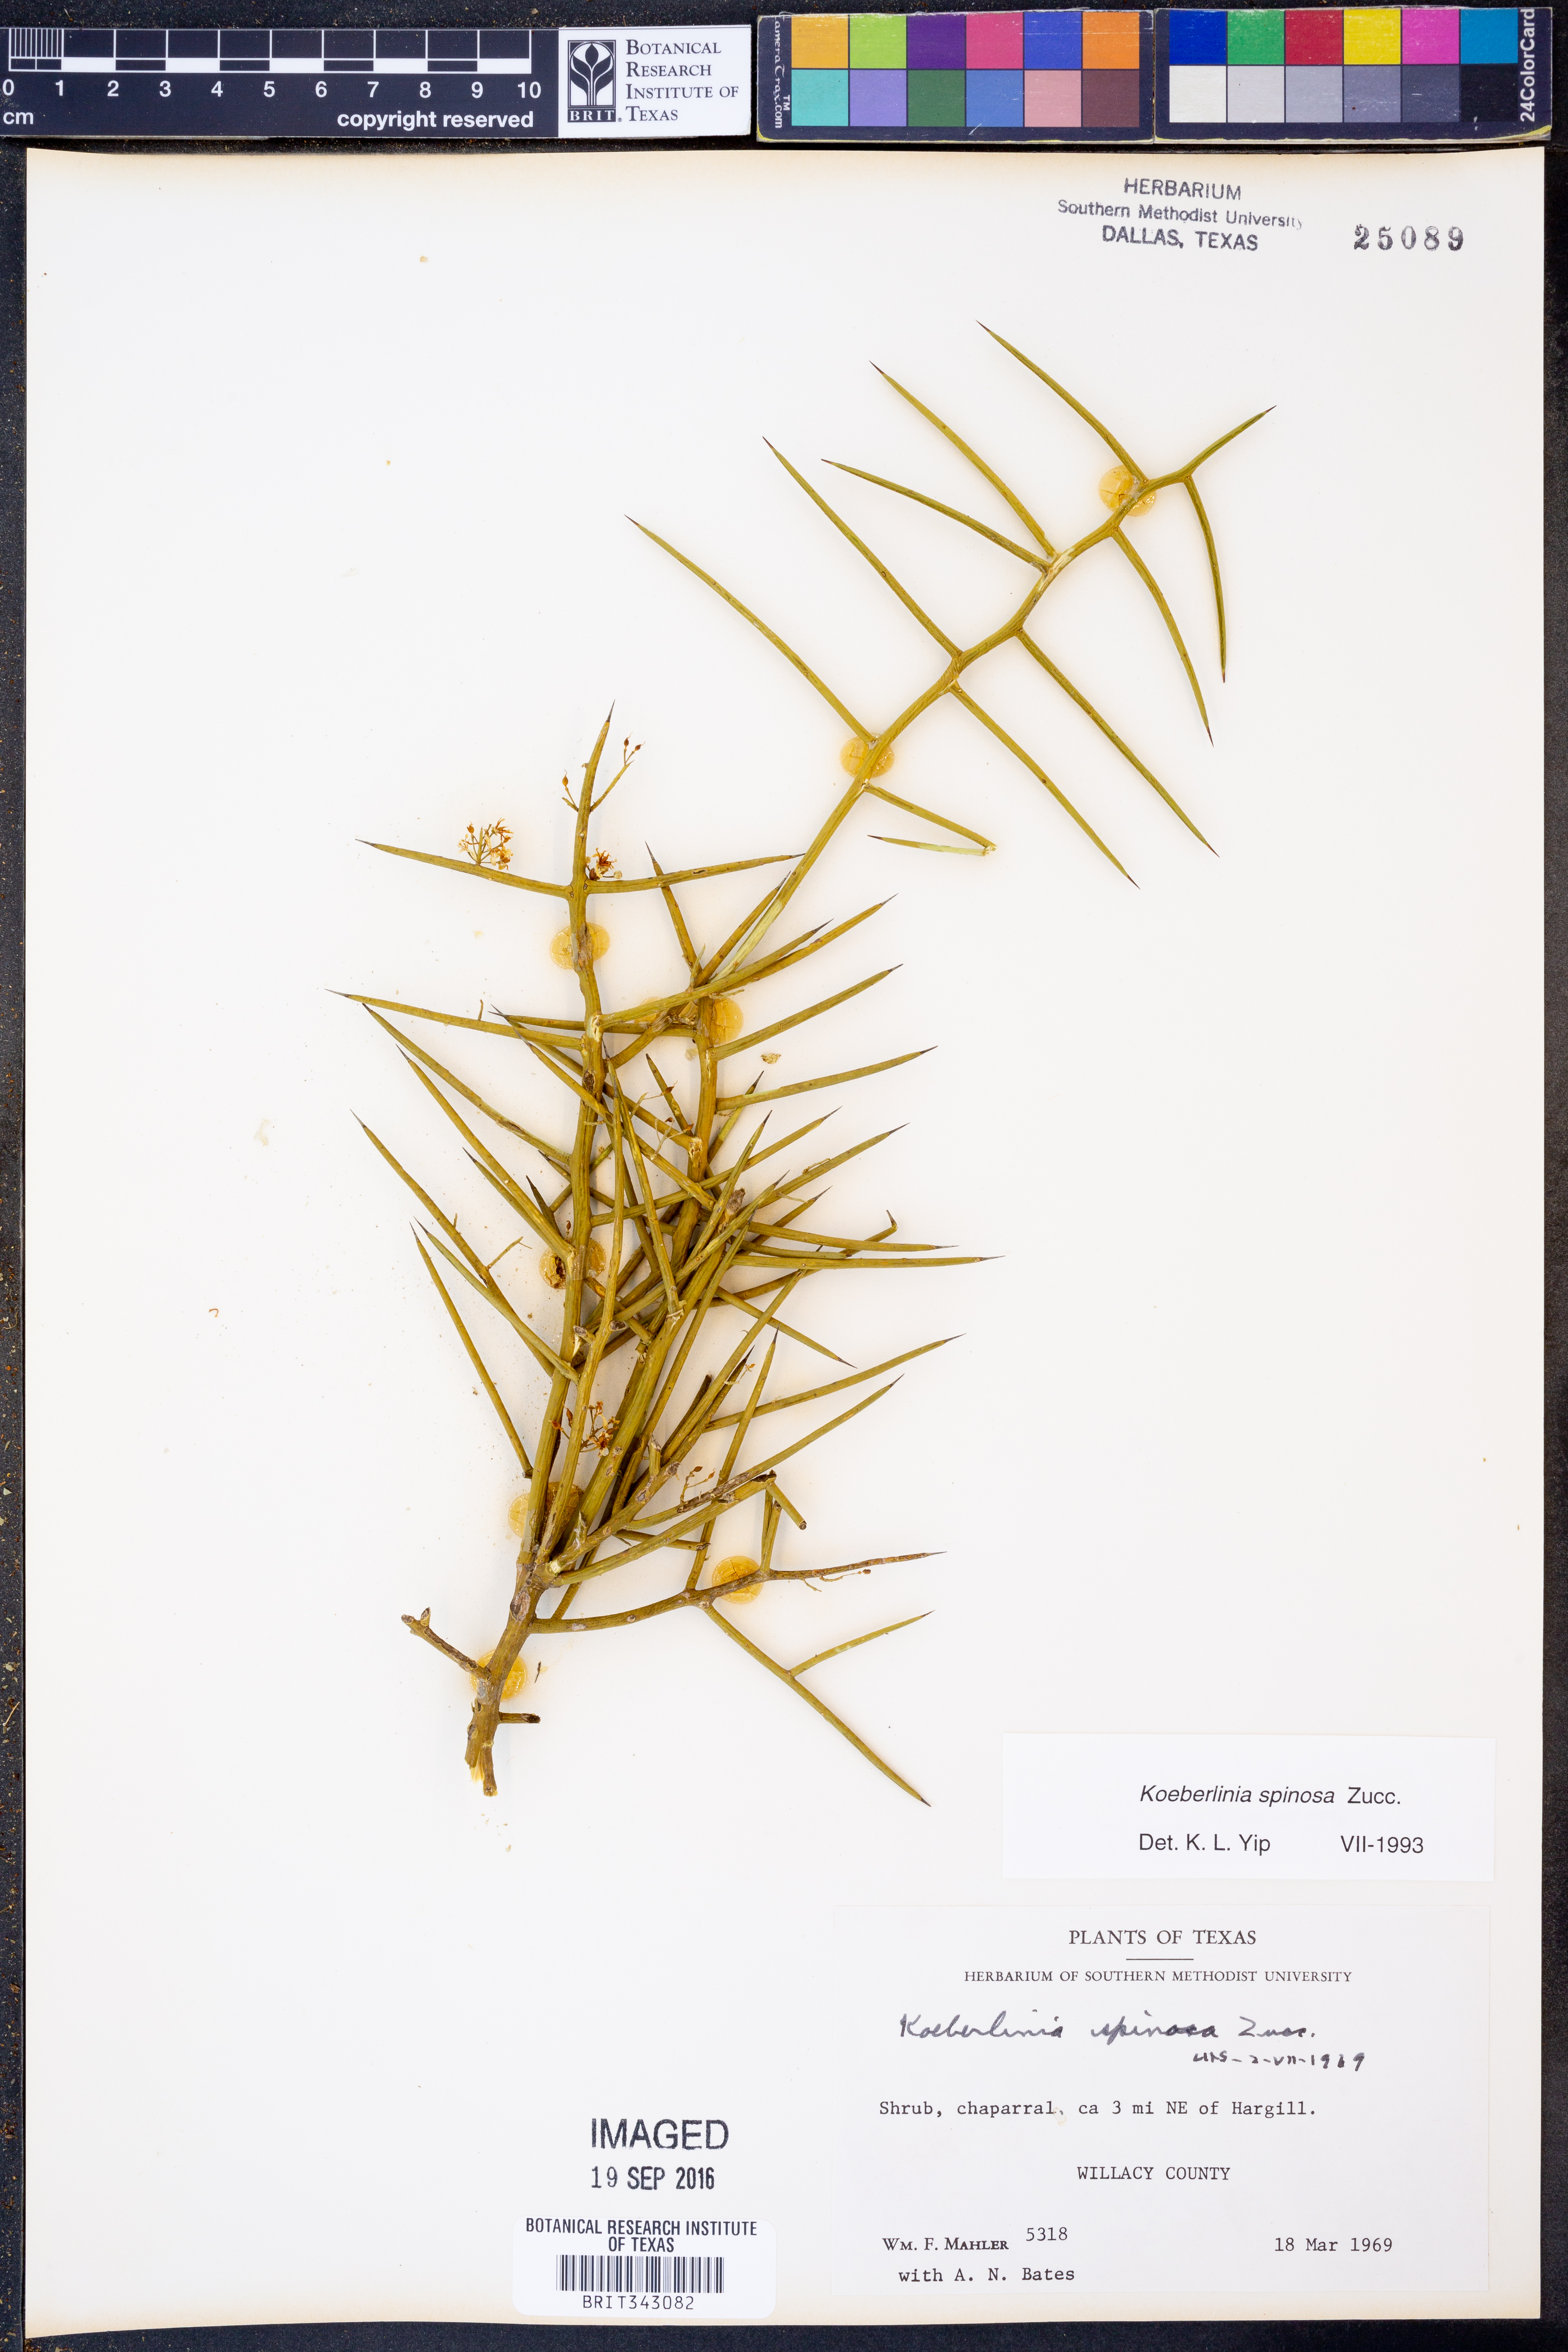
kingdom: Plantae
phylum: Tracheophyta
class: Magnoliopsida
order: Brassicales
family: Koeberliniaceae
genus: Koeberlinia
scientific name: Koeberlinia spinosa
